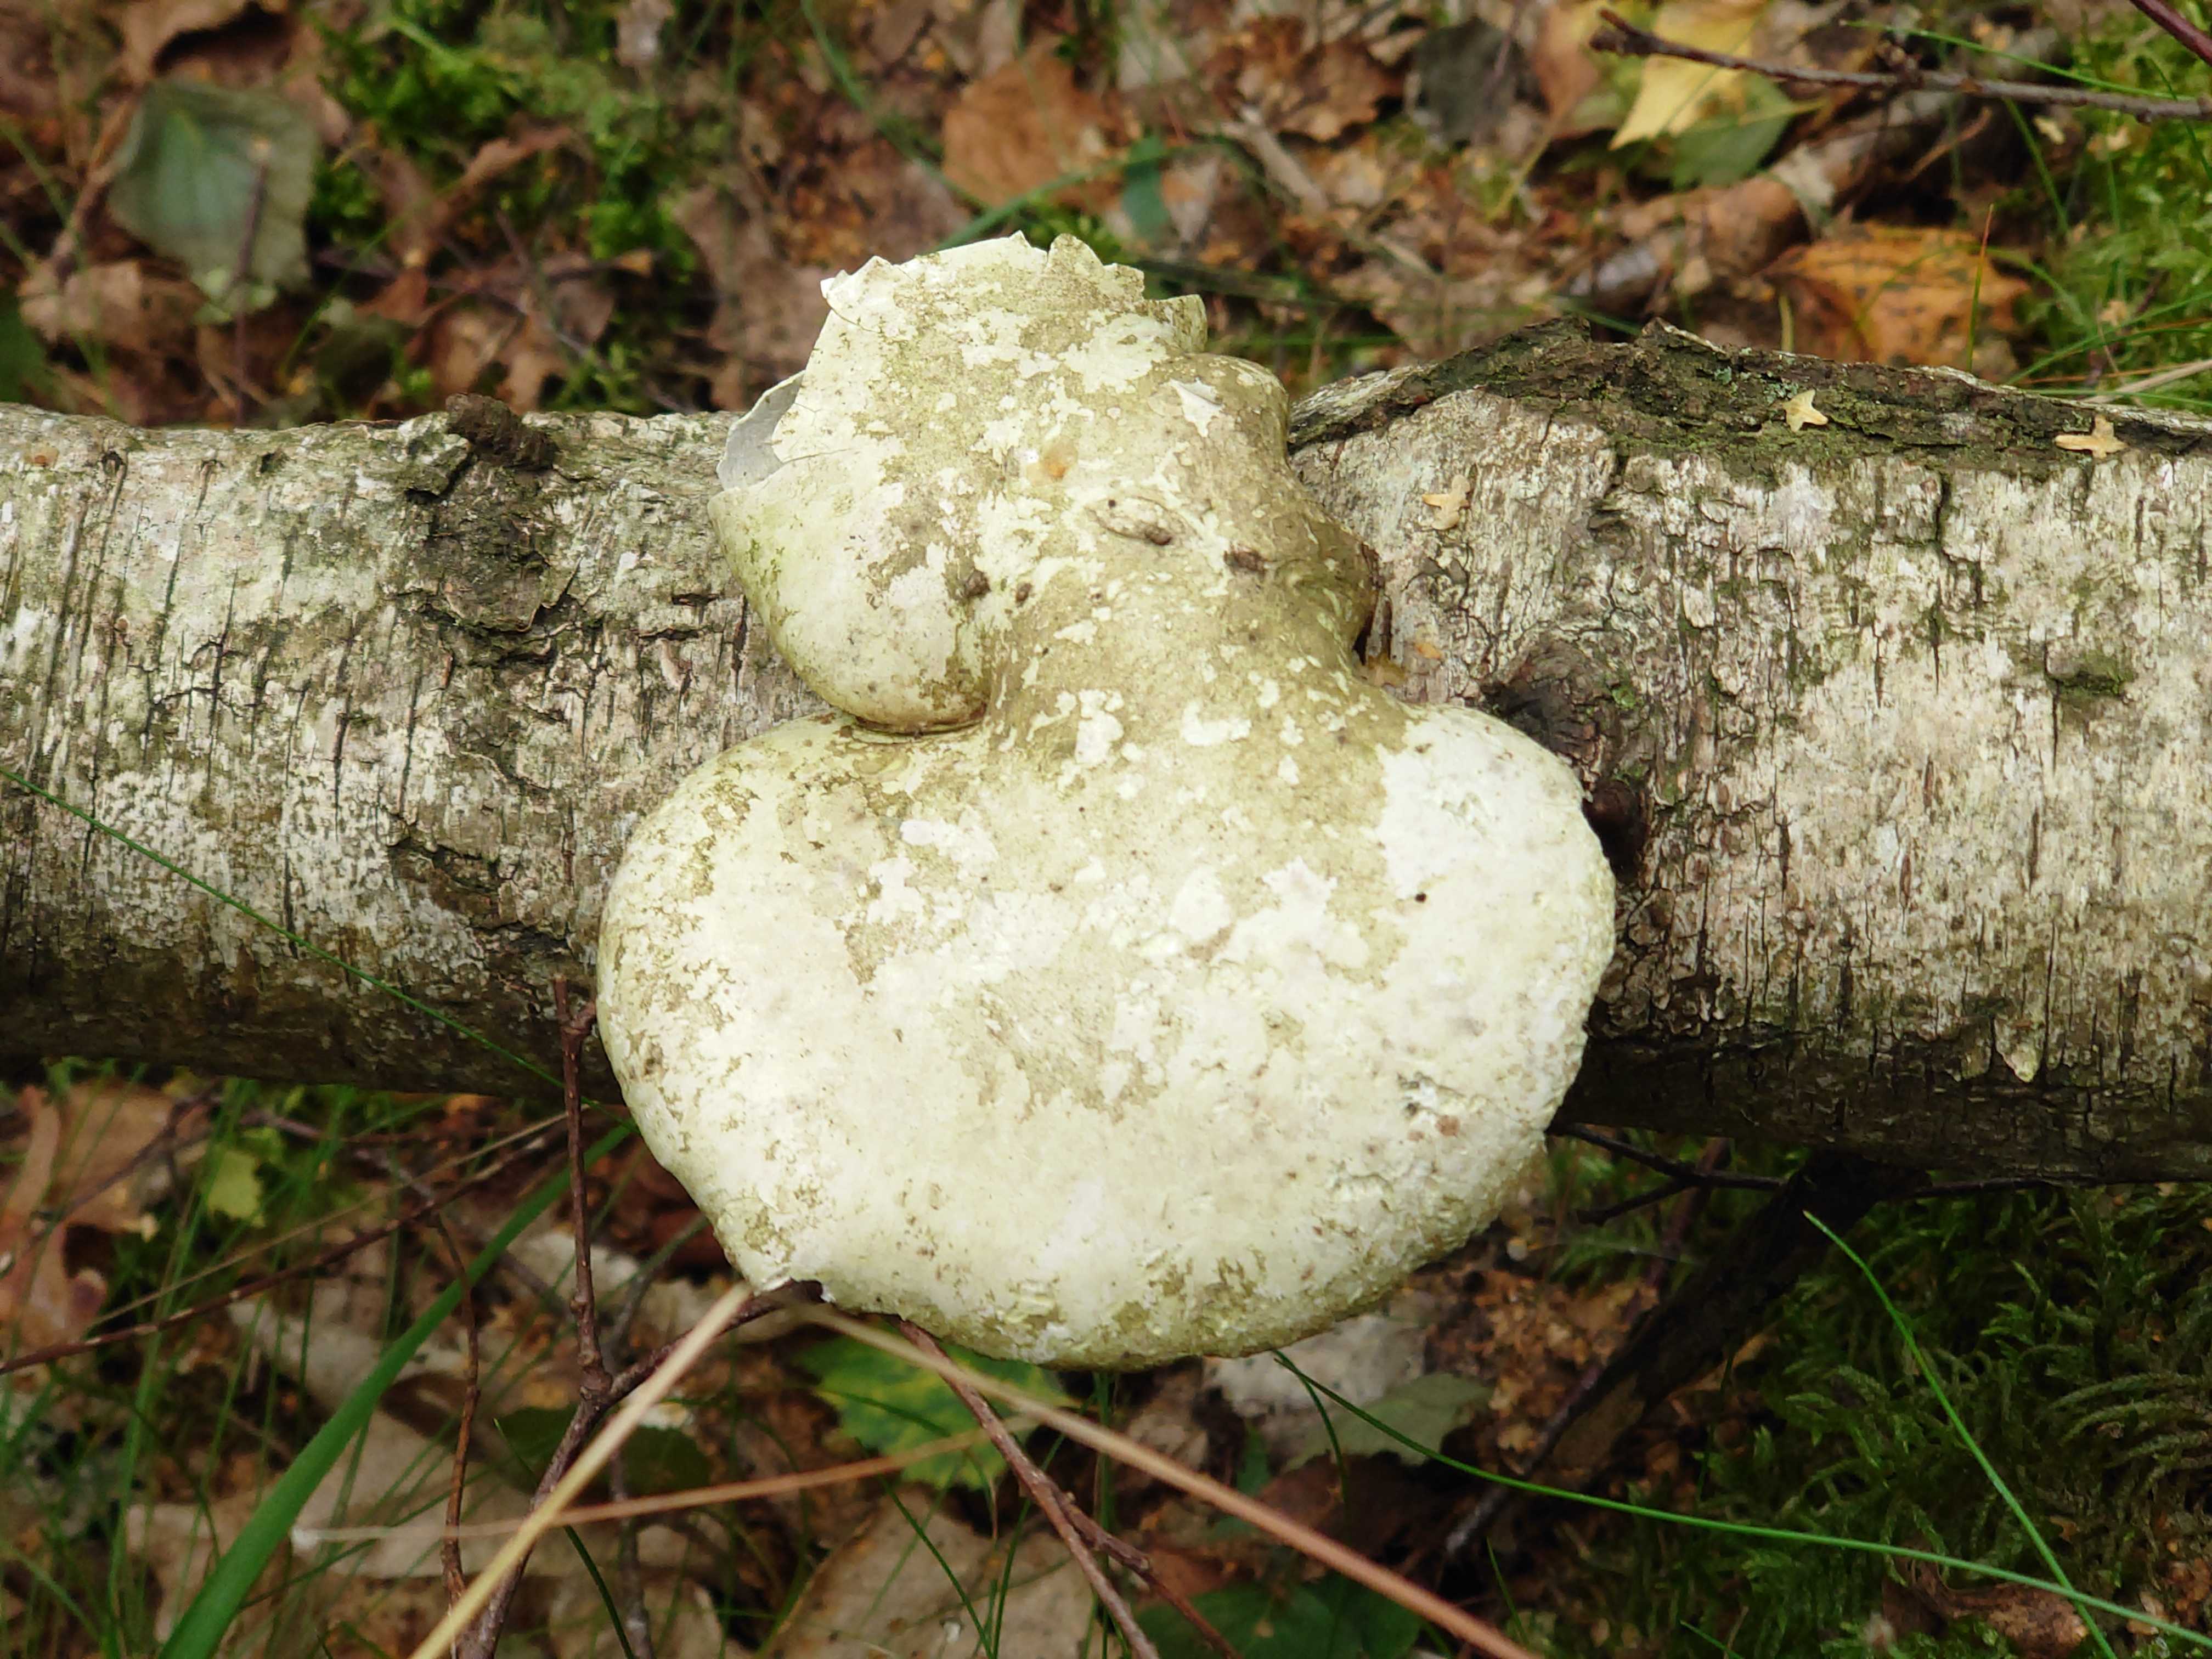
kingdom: Fungi
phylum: Basidiomycota
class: Agaricomycetes
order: Polyporales
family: Fomitopsidaceae
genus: Fomitopsis
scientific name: Fomitopsis betulina
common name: birkeporesvamp
